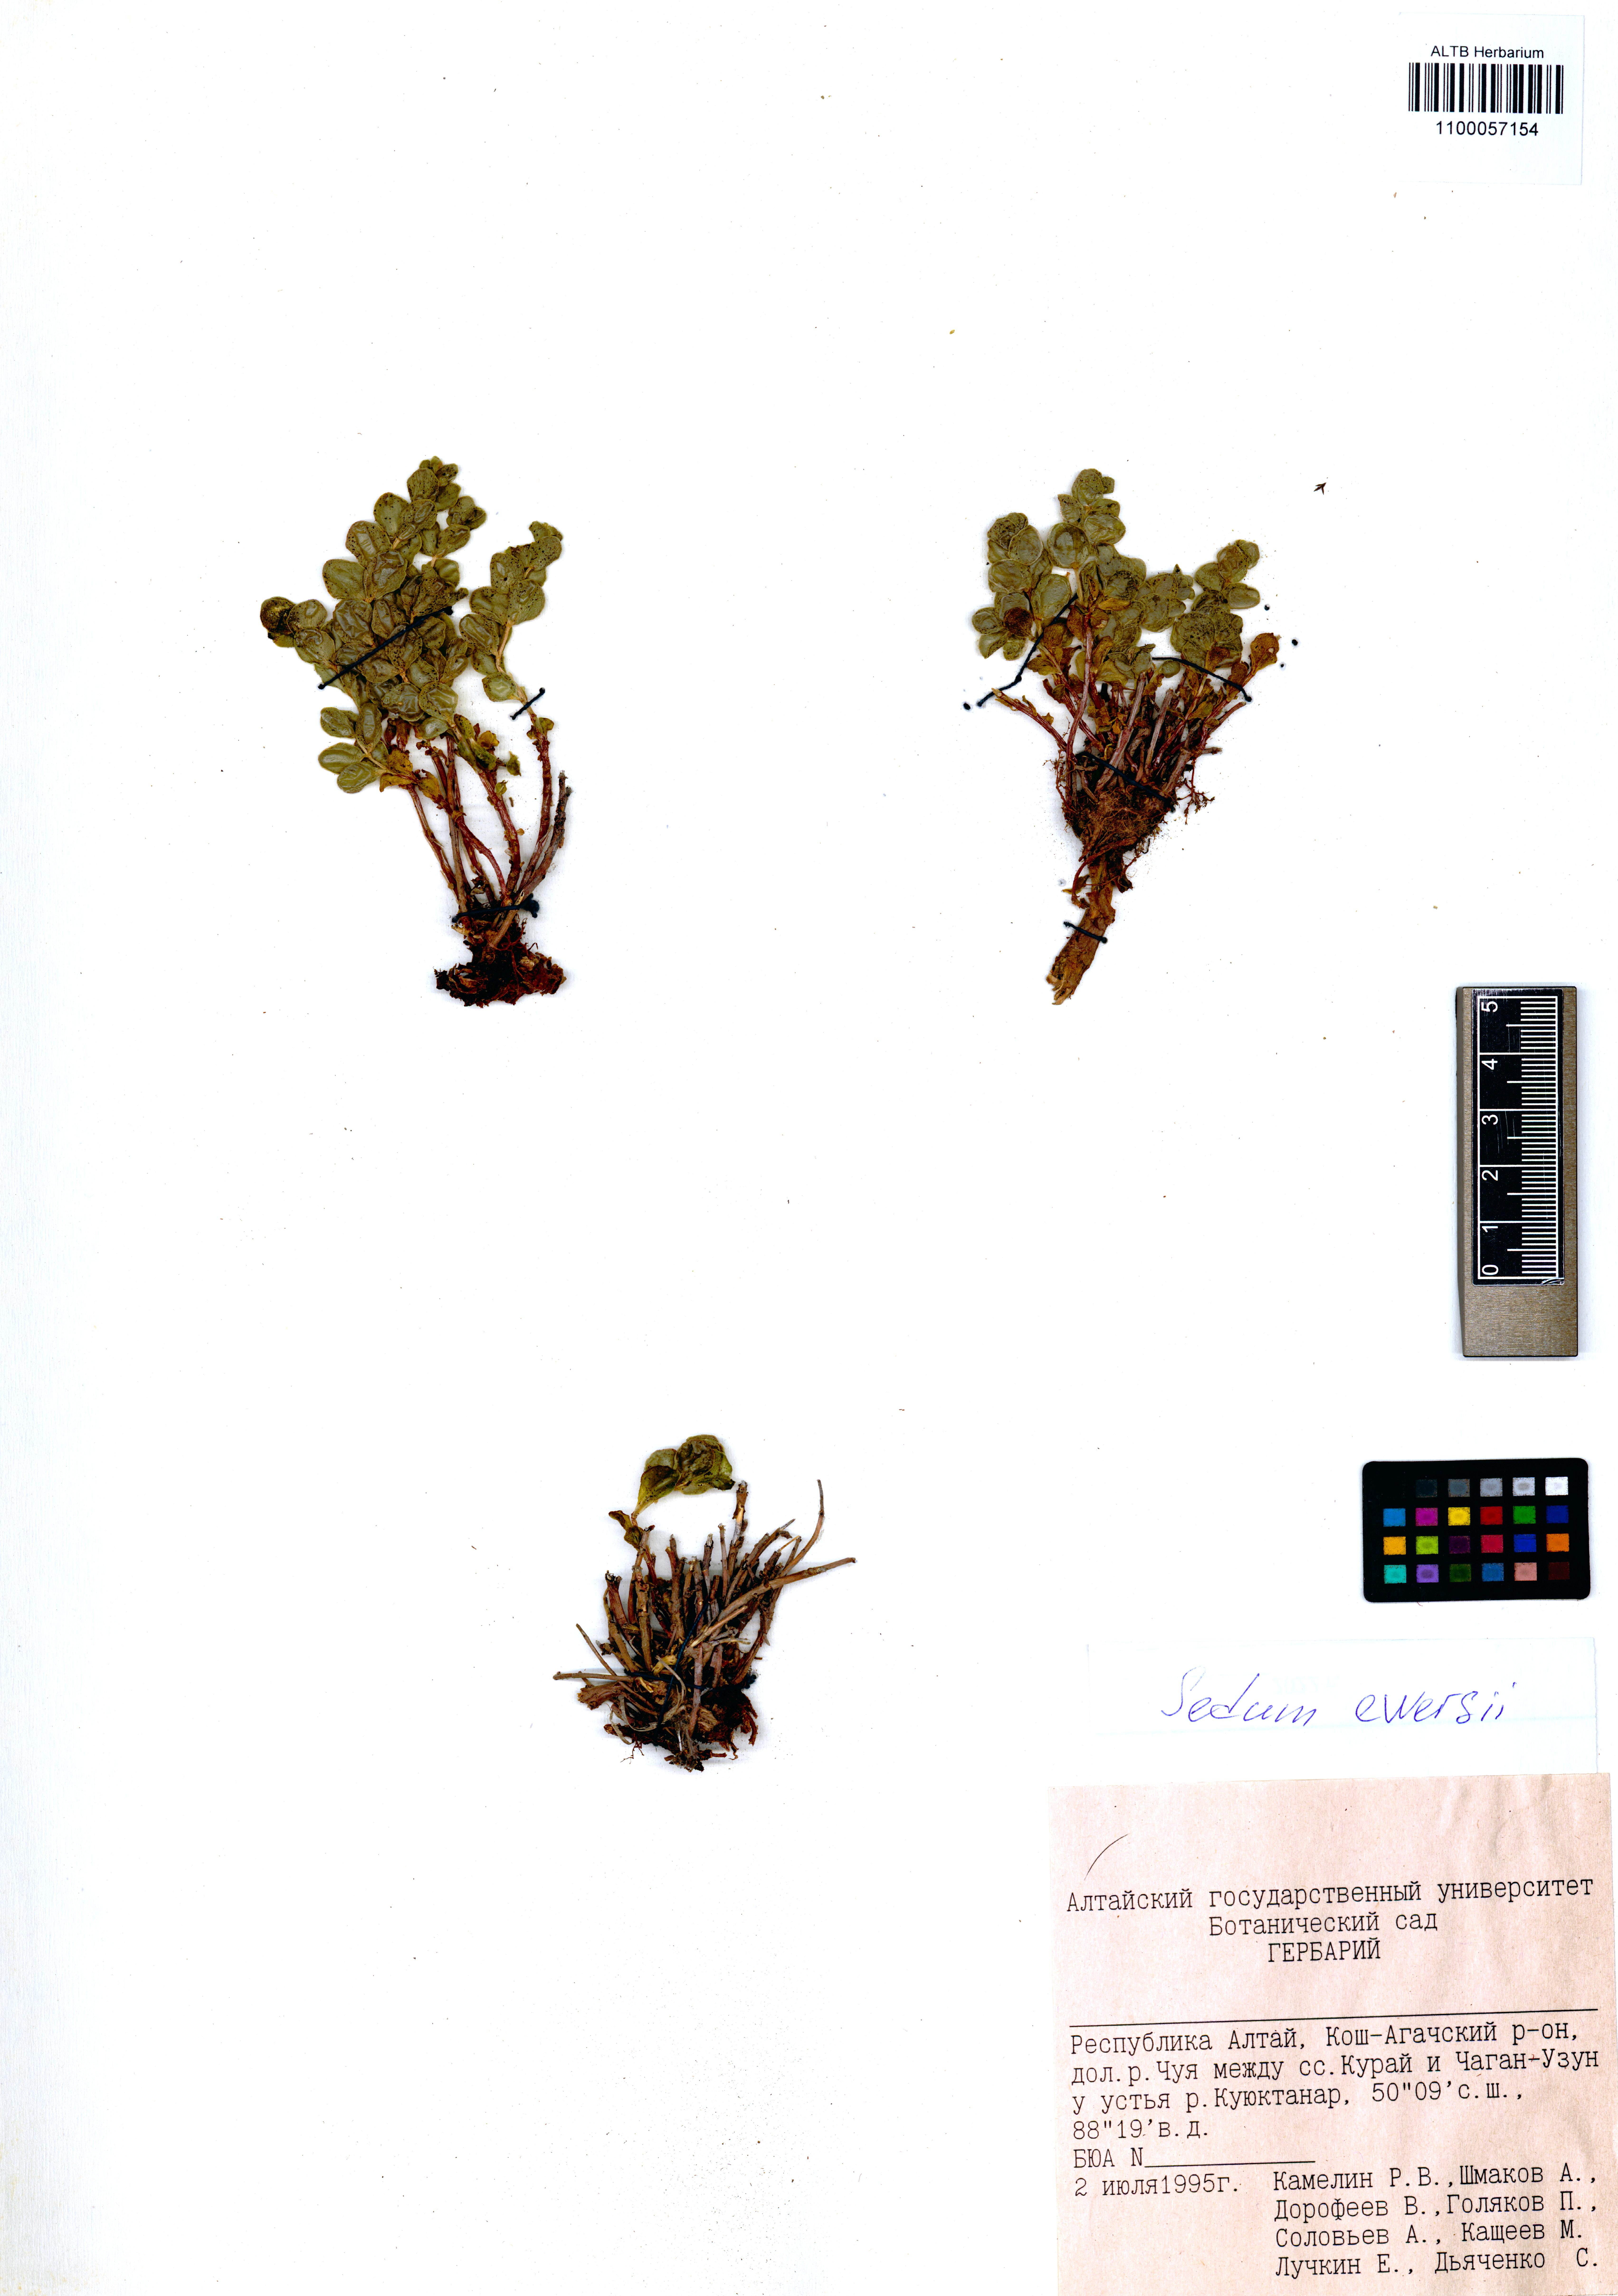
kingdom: Plantae
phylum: Tracheophyta
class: Magnoliopsida
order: Saxifragales
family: Crassulaceae
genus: Hylotelephium
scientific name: Hylotelephium ewersii
